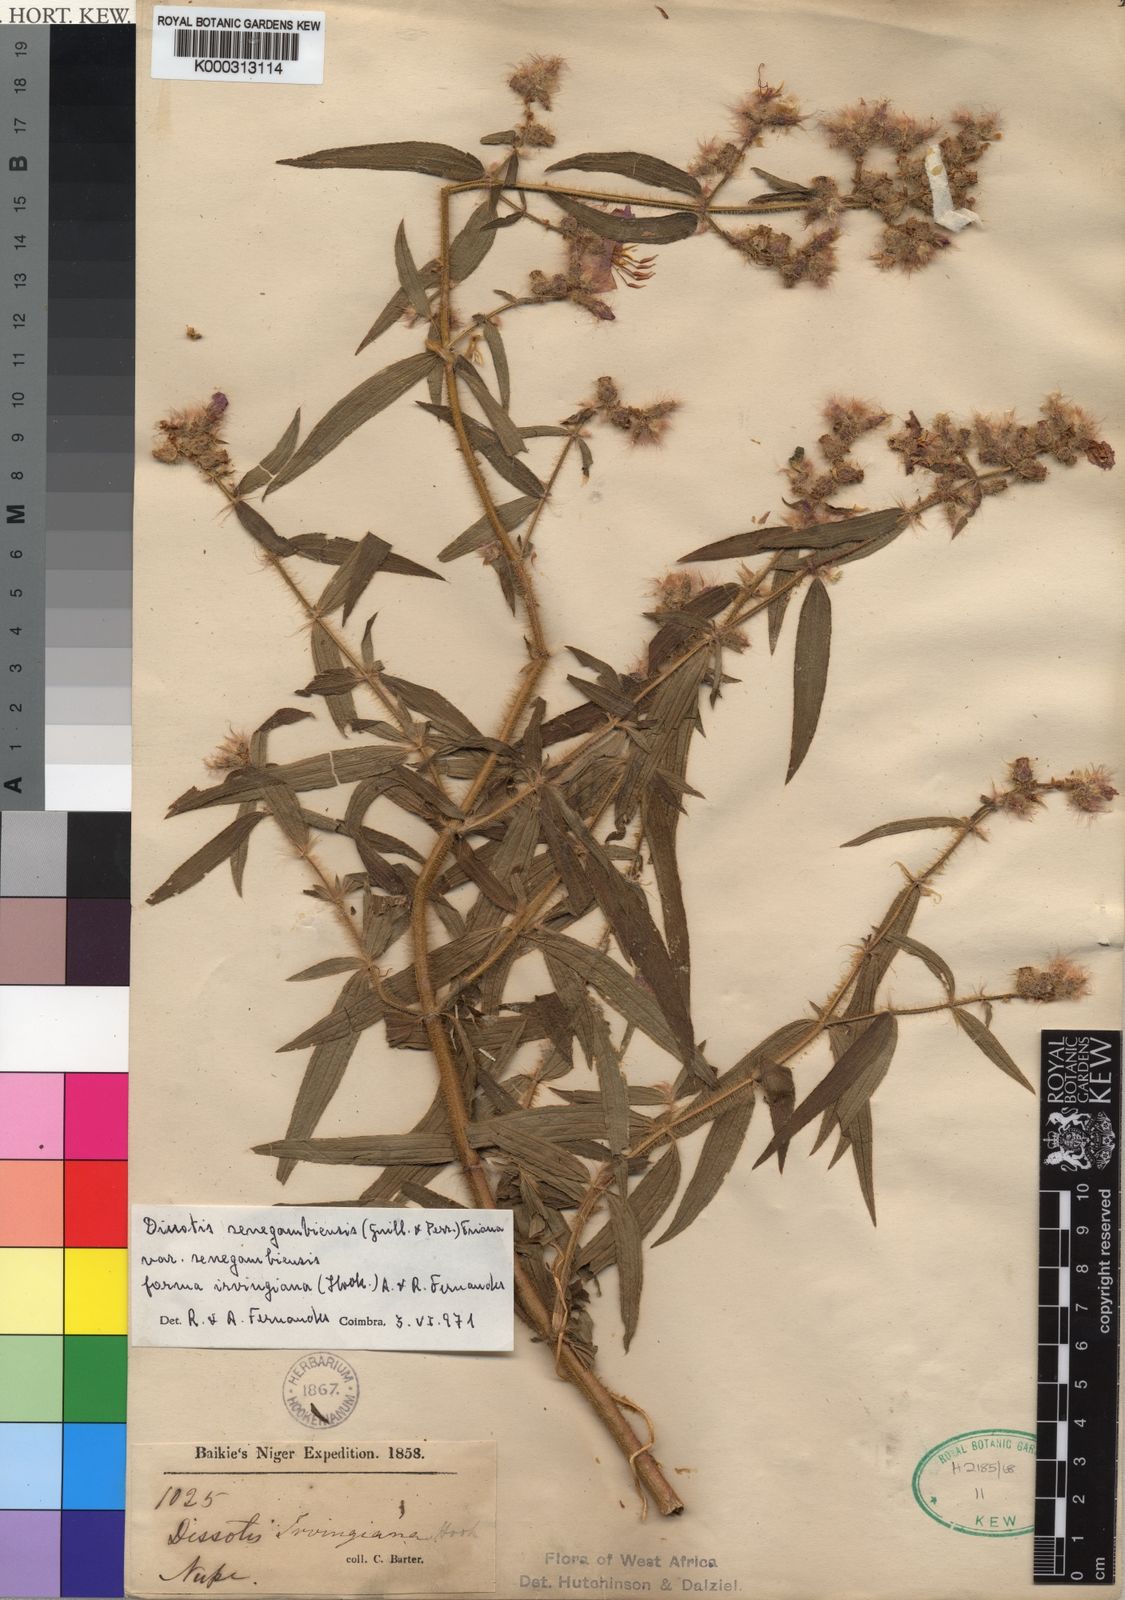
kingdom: Plantae
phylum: Tracheophyta
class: Magnoliopsida
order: Myrtales
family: Melastomataceae
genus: Antherotoma
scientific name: Antherotoma
